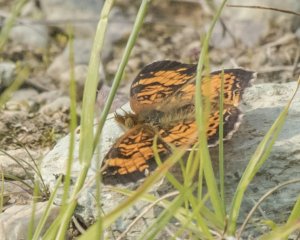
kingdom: Animalia
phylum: Arthropoda
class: Insecta
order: Lepidoptera
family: Nymphalidae
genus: Phyciodes
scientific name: Phyciodes tharos
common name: Northern Crescent
